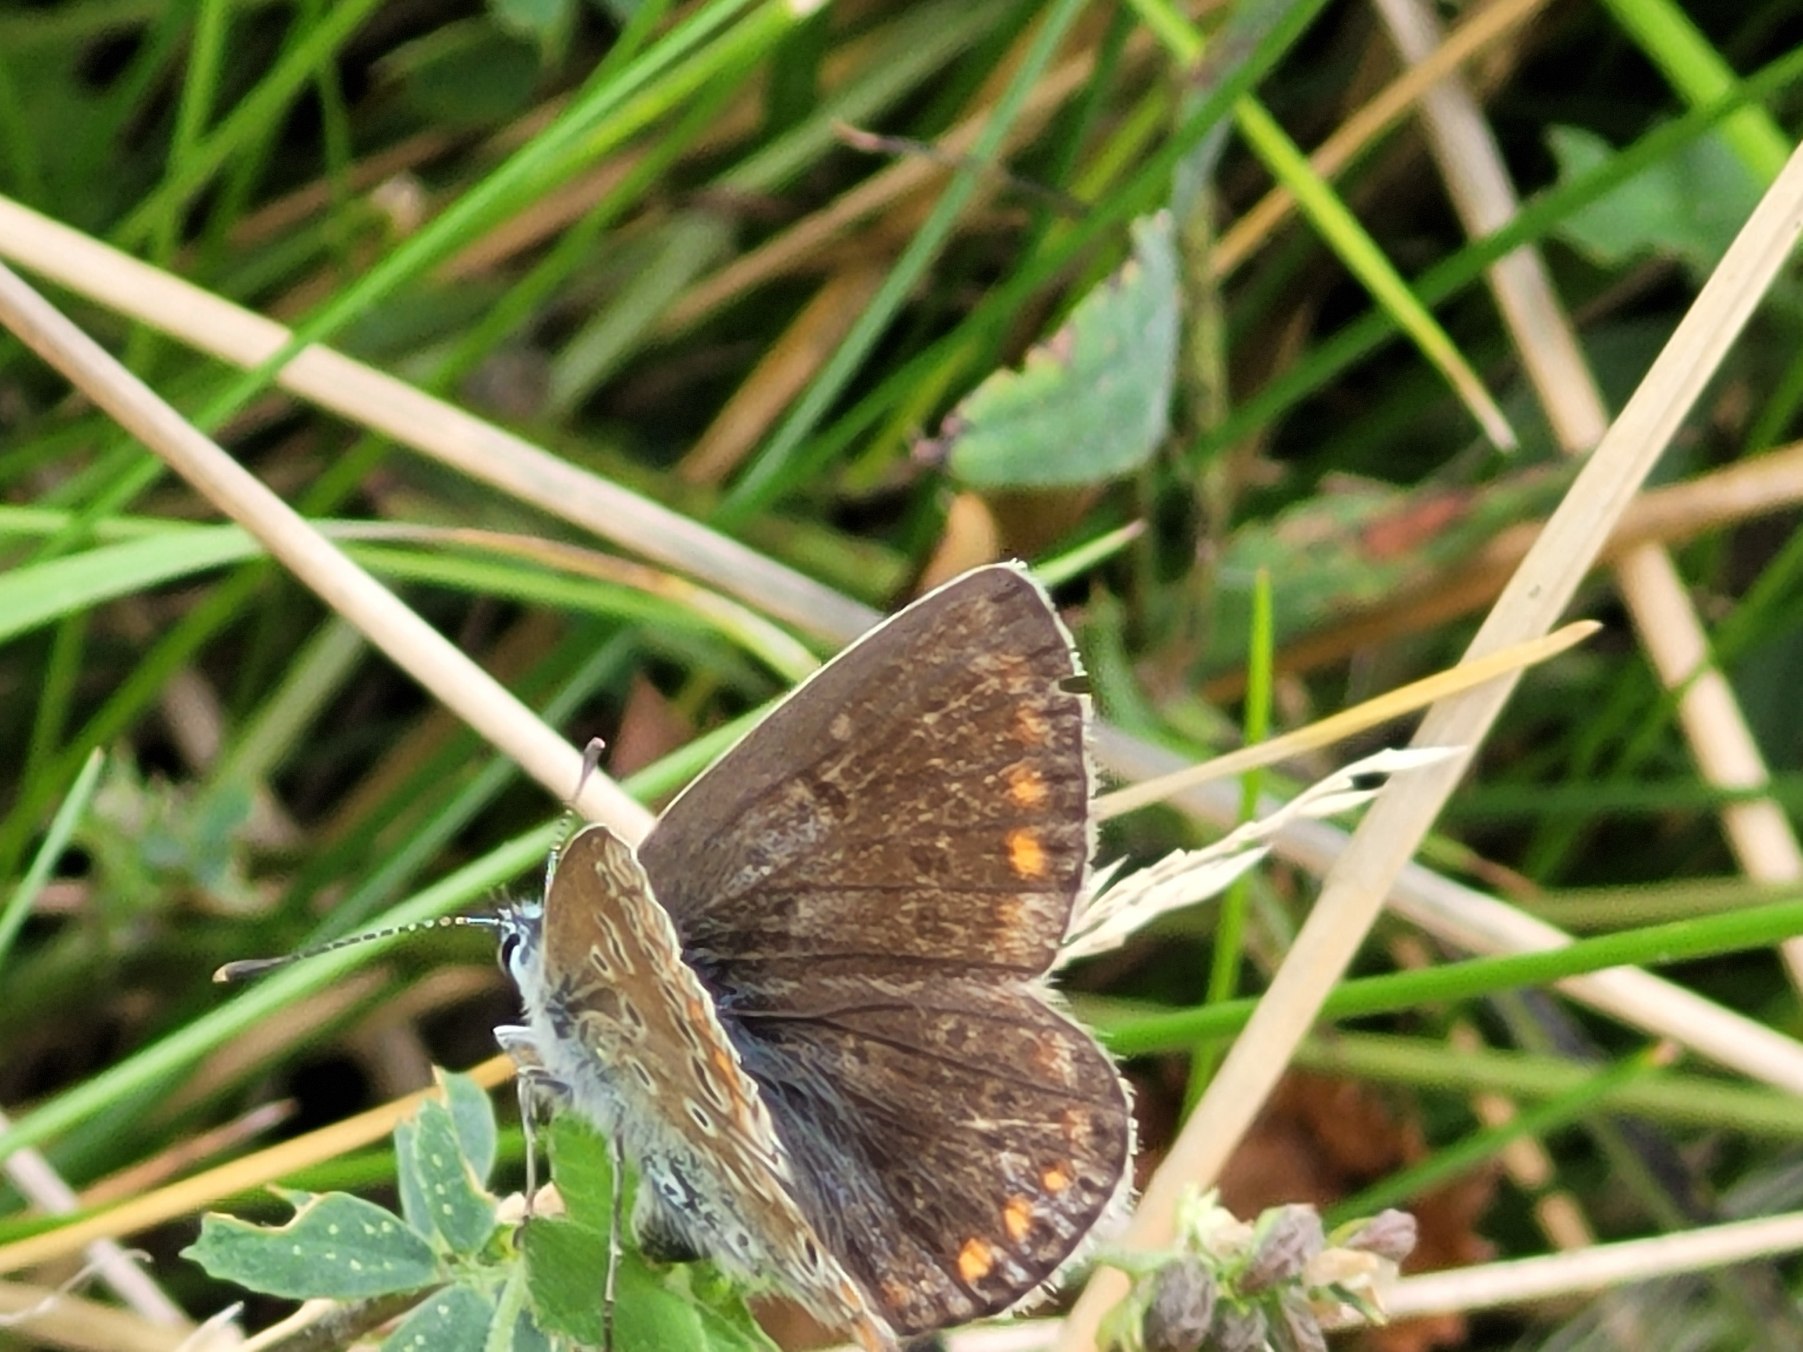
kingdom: Animalia
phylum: Arthropoda
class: Insecta
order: Lepidoptera
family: Lycaenidae
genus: Polyommatus
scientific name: Polyommatus icarus
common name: Almindelig blåfugl
